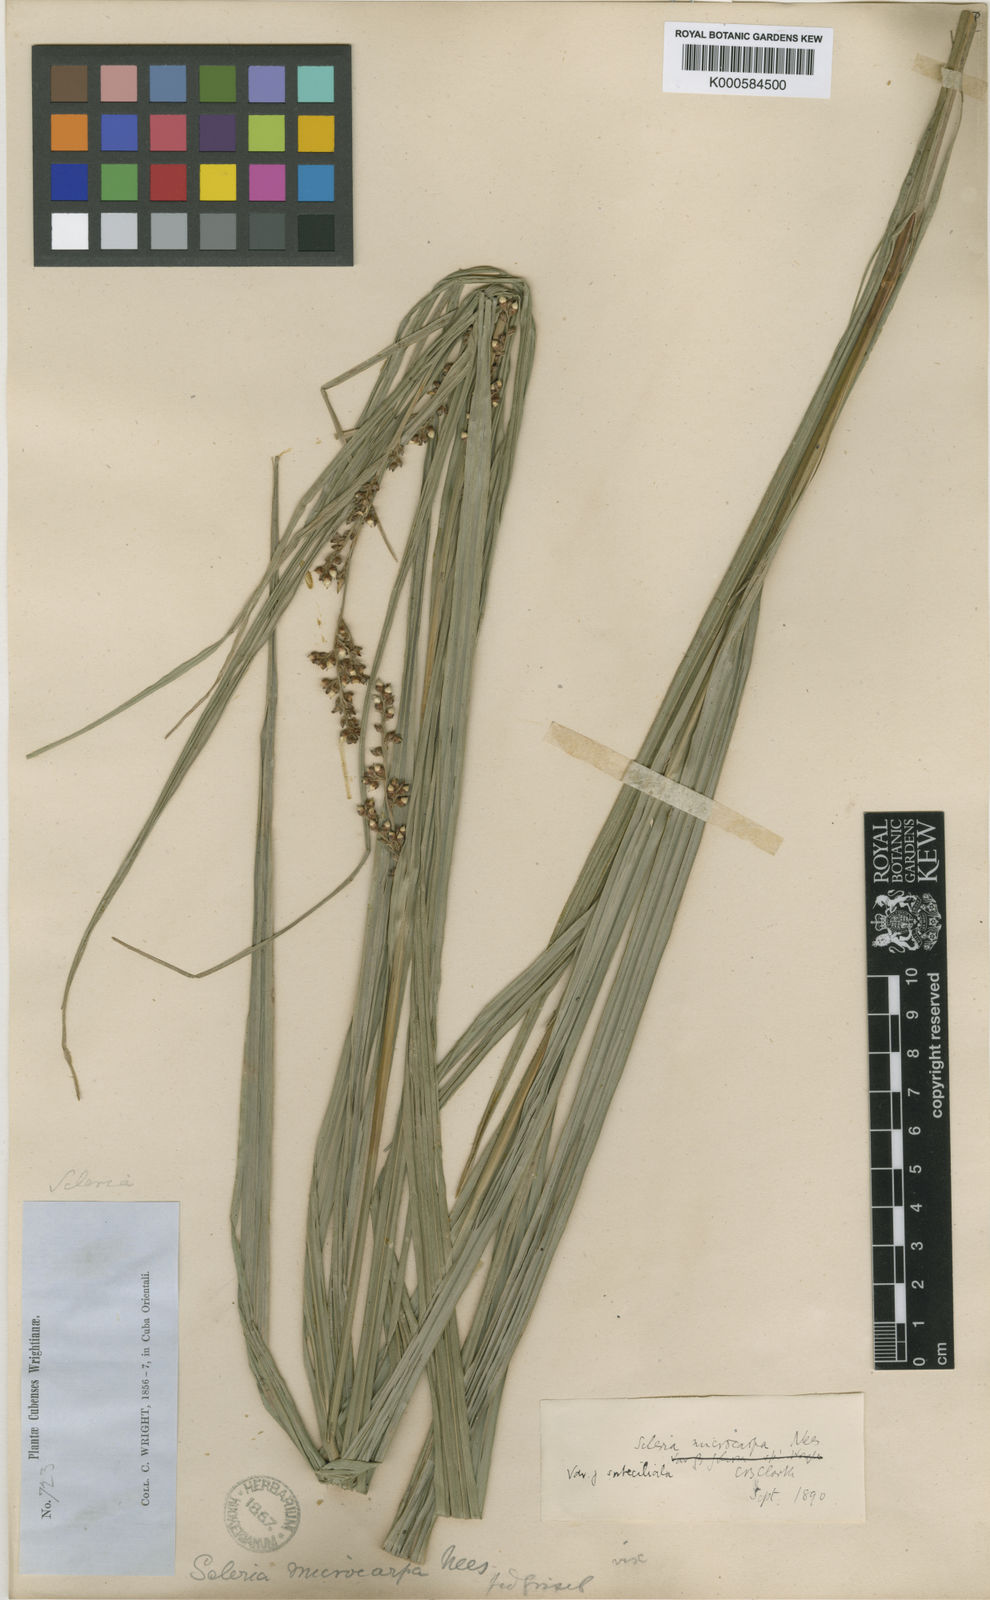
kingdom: Plantae
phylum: Tracheophyta
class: Liliopsida
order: Poales
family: Cyperaceae
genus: Scleria
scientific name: Scleria microcarpa
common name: Tropical nutrush
